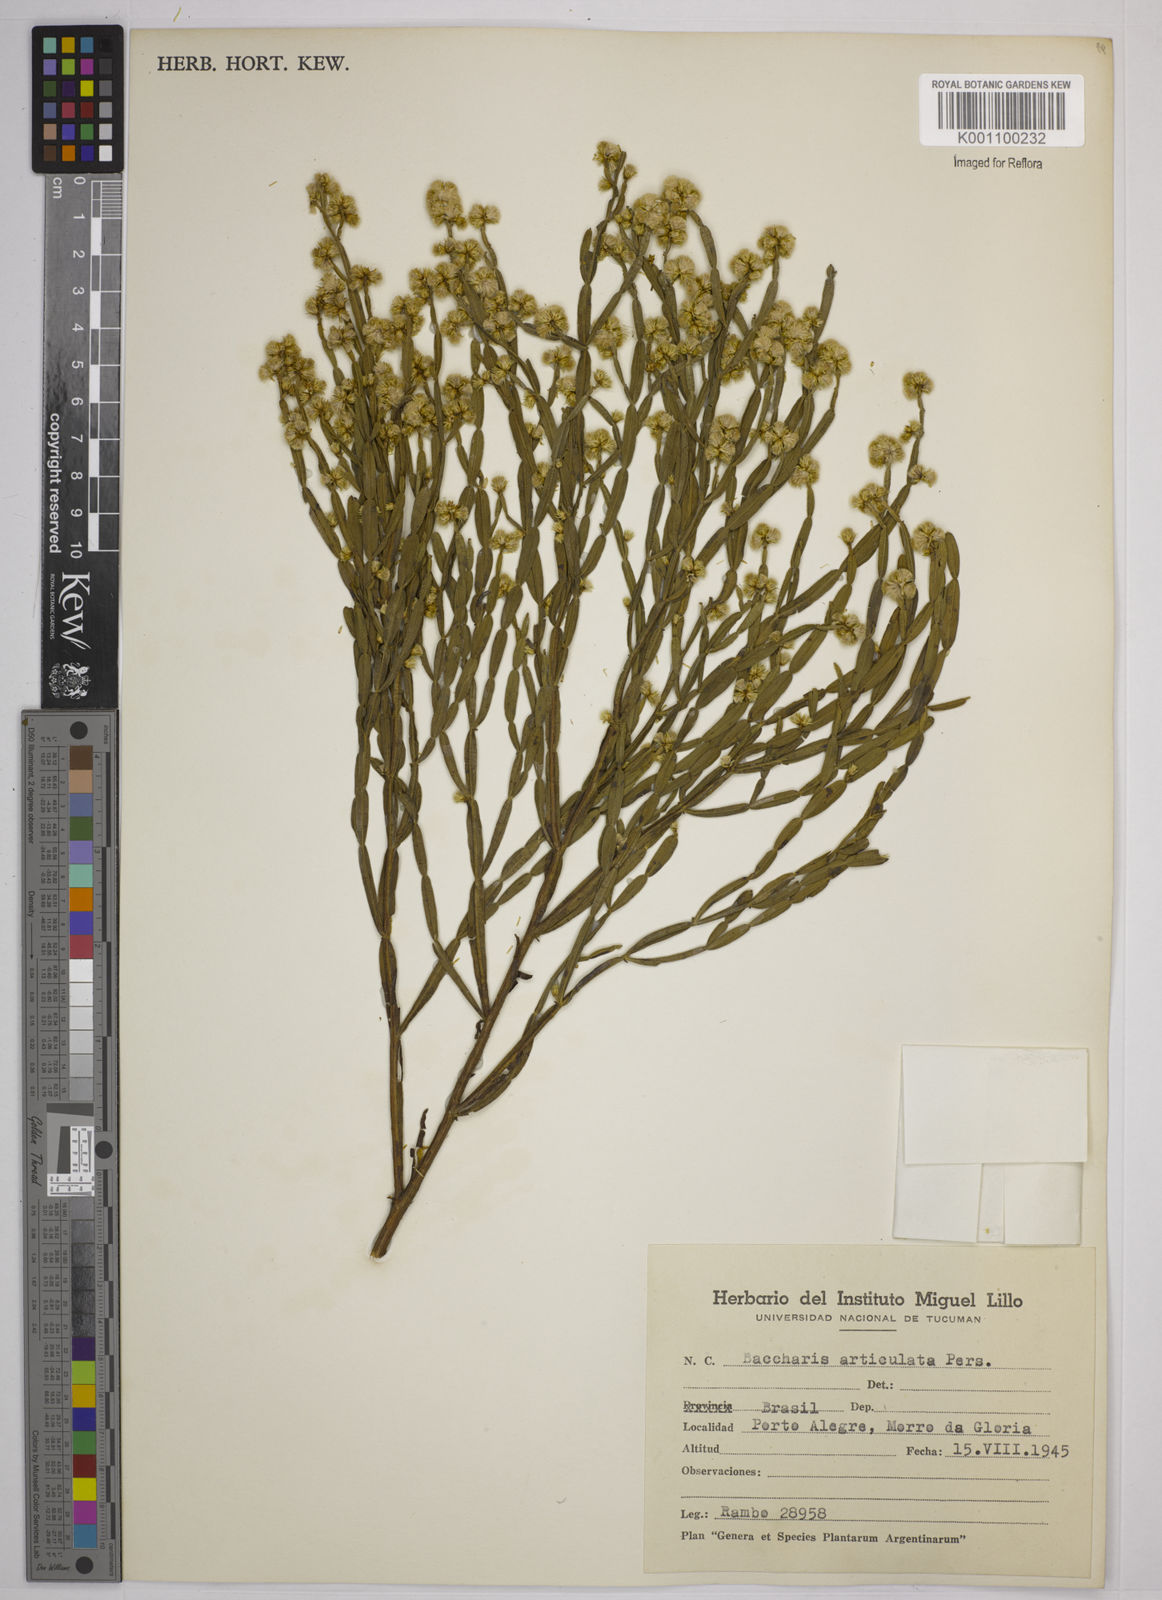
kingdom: Plantae
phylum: Tracheophyta
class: Magnoliopsida
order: Asterales
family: Asteraceae
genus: Baccharis
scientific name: Baccharis
